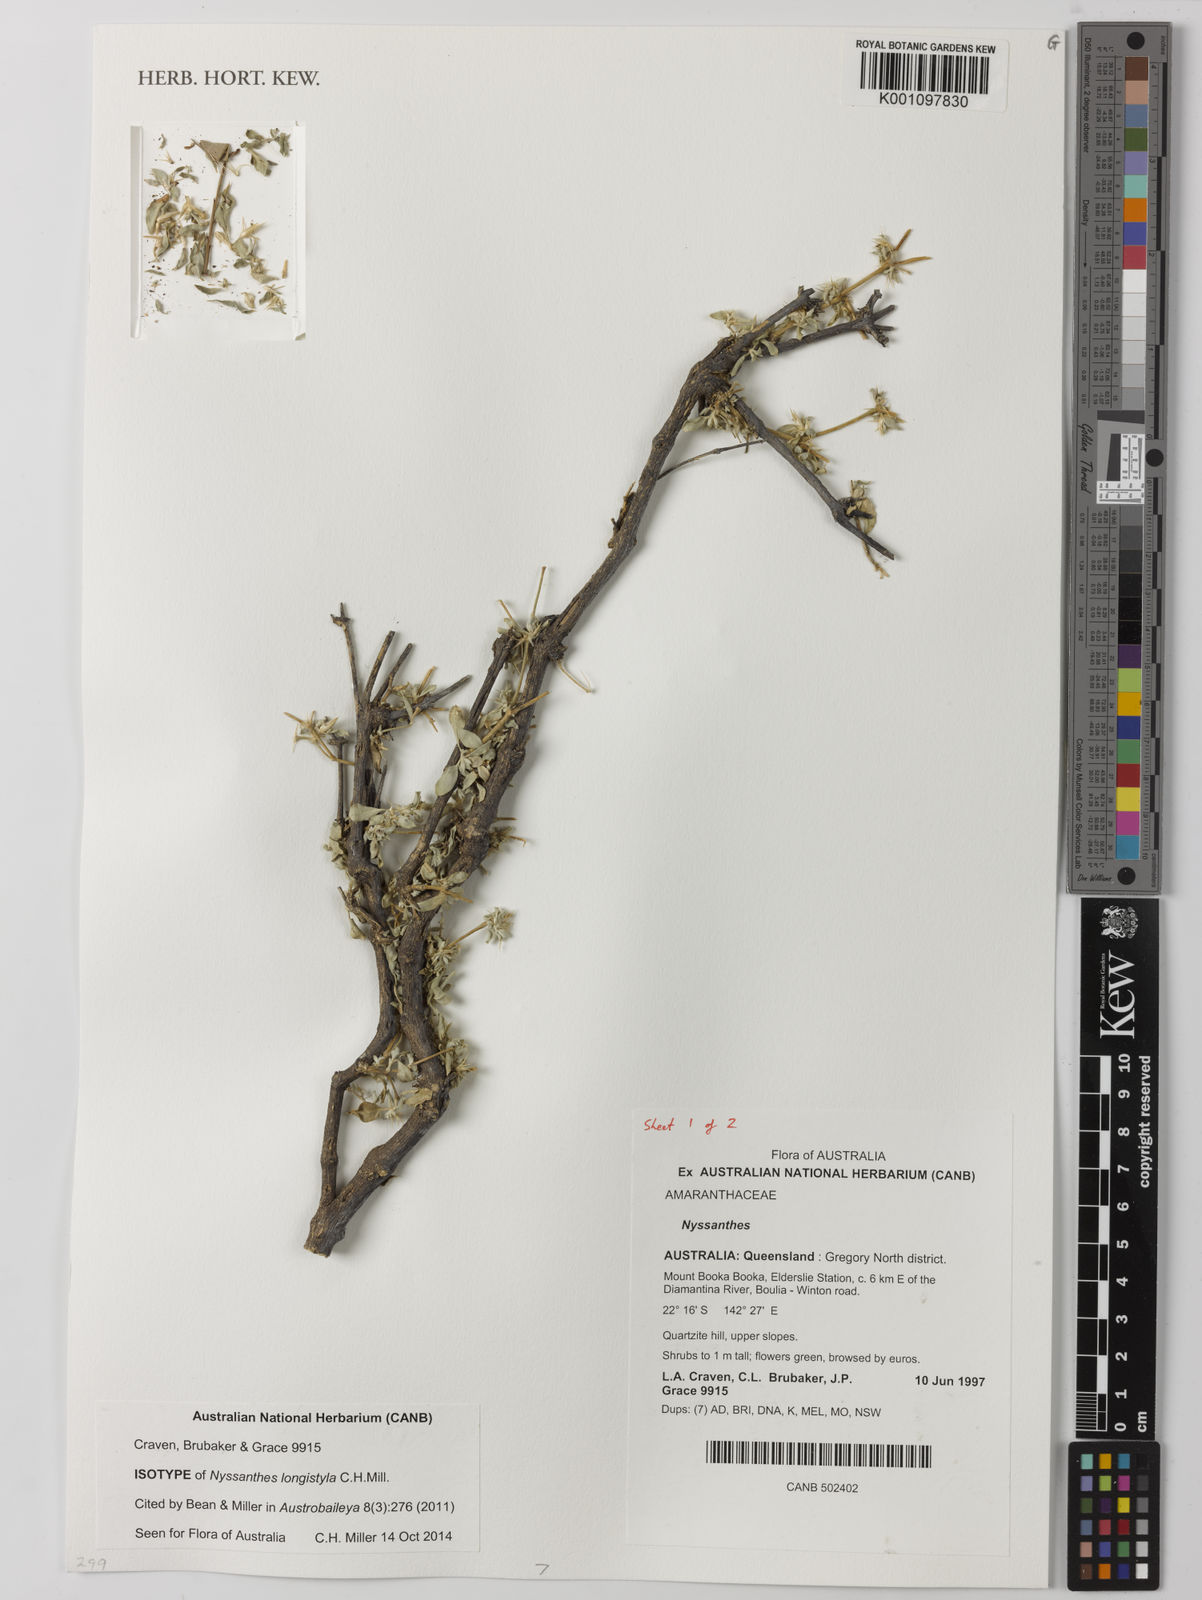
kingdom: Plantae
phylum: Tracheophyta
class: Magnoliopsida
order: Caryophyllales
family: Amaranthaceae
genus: Nyssanthes
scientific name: Nyssanthes longistyla
